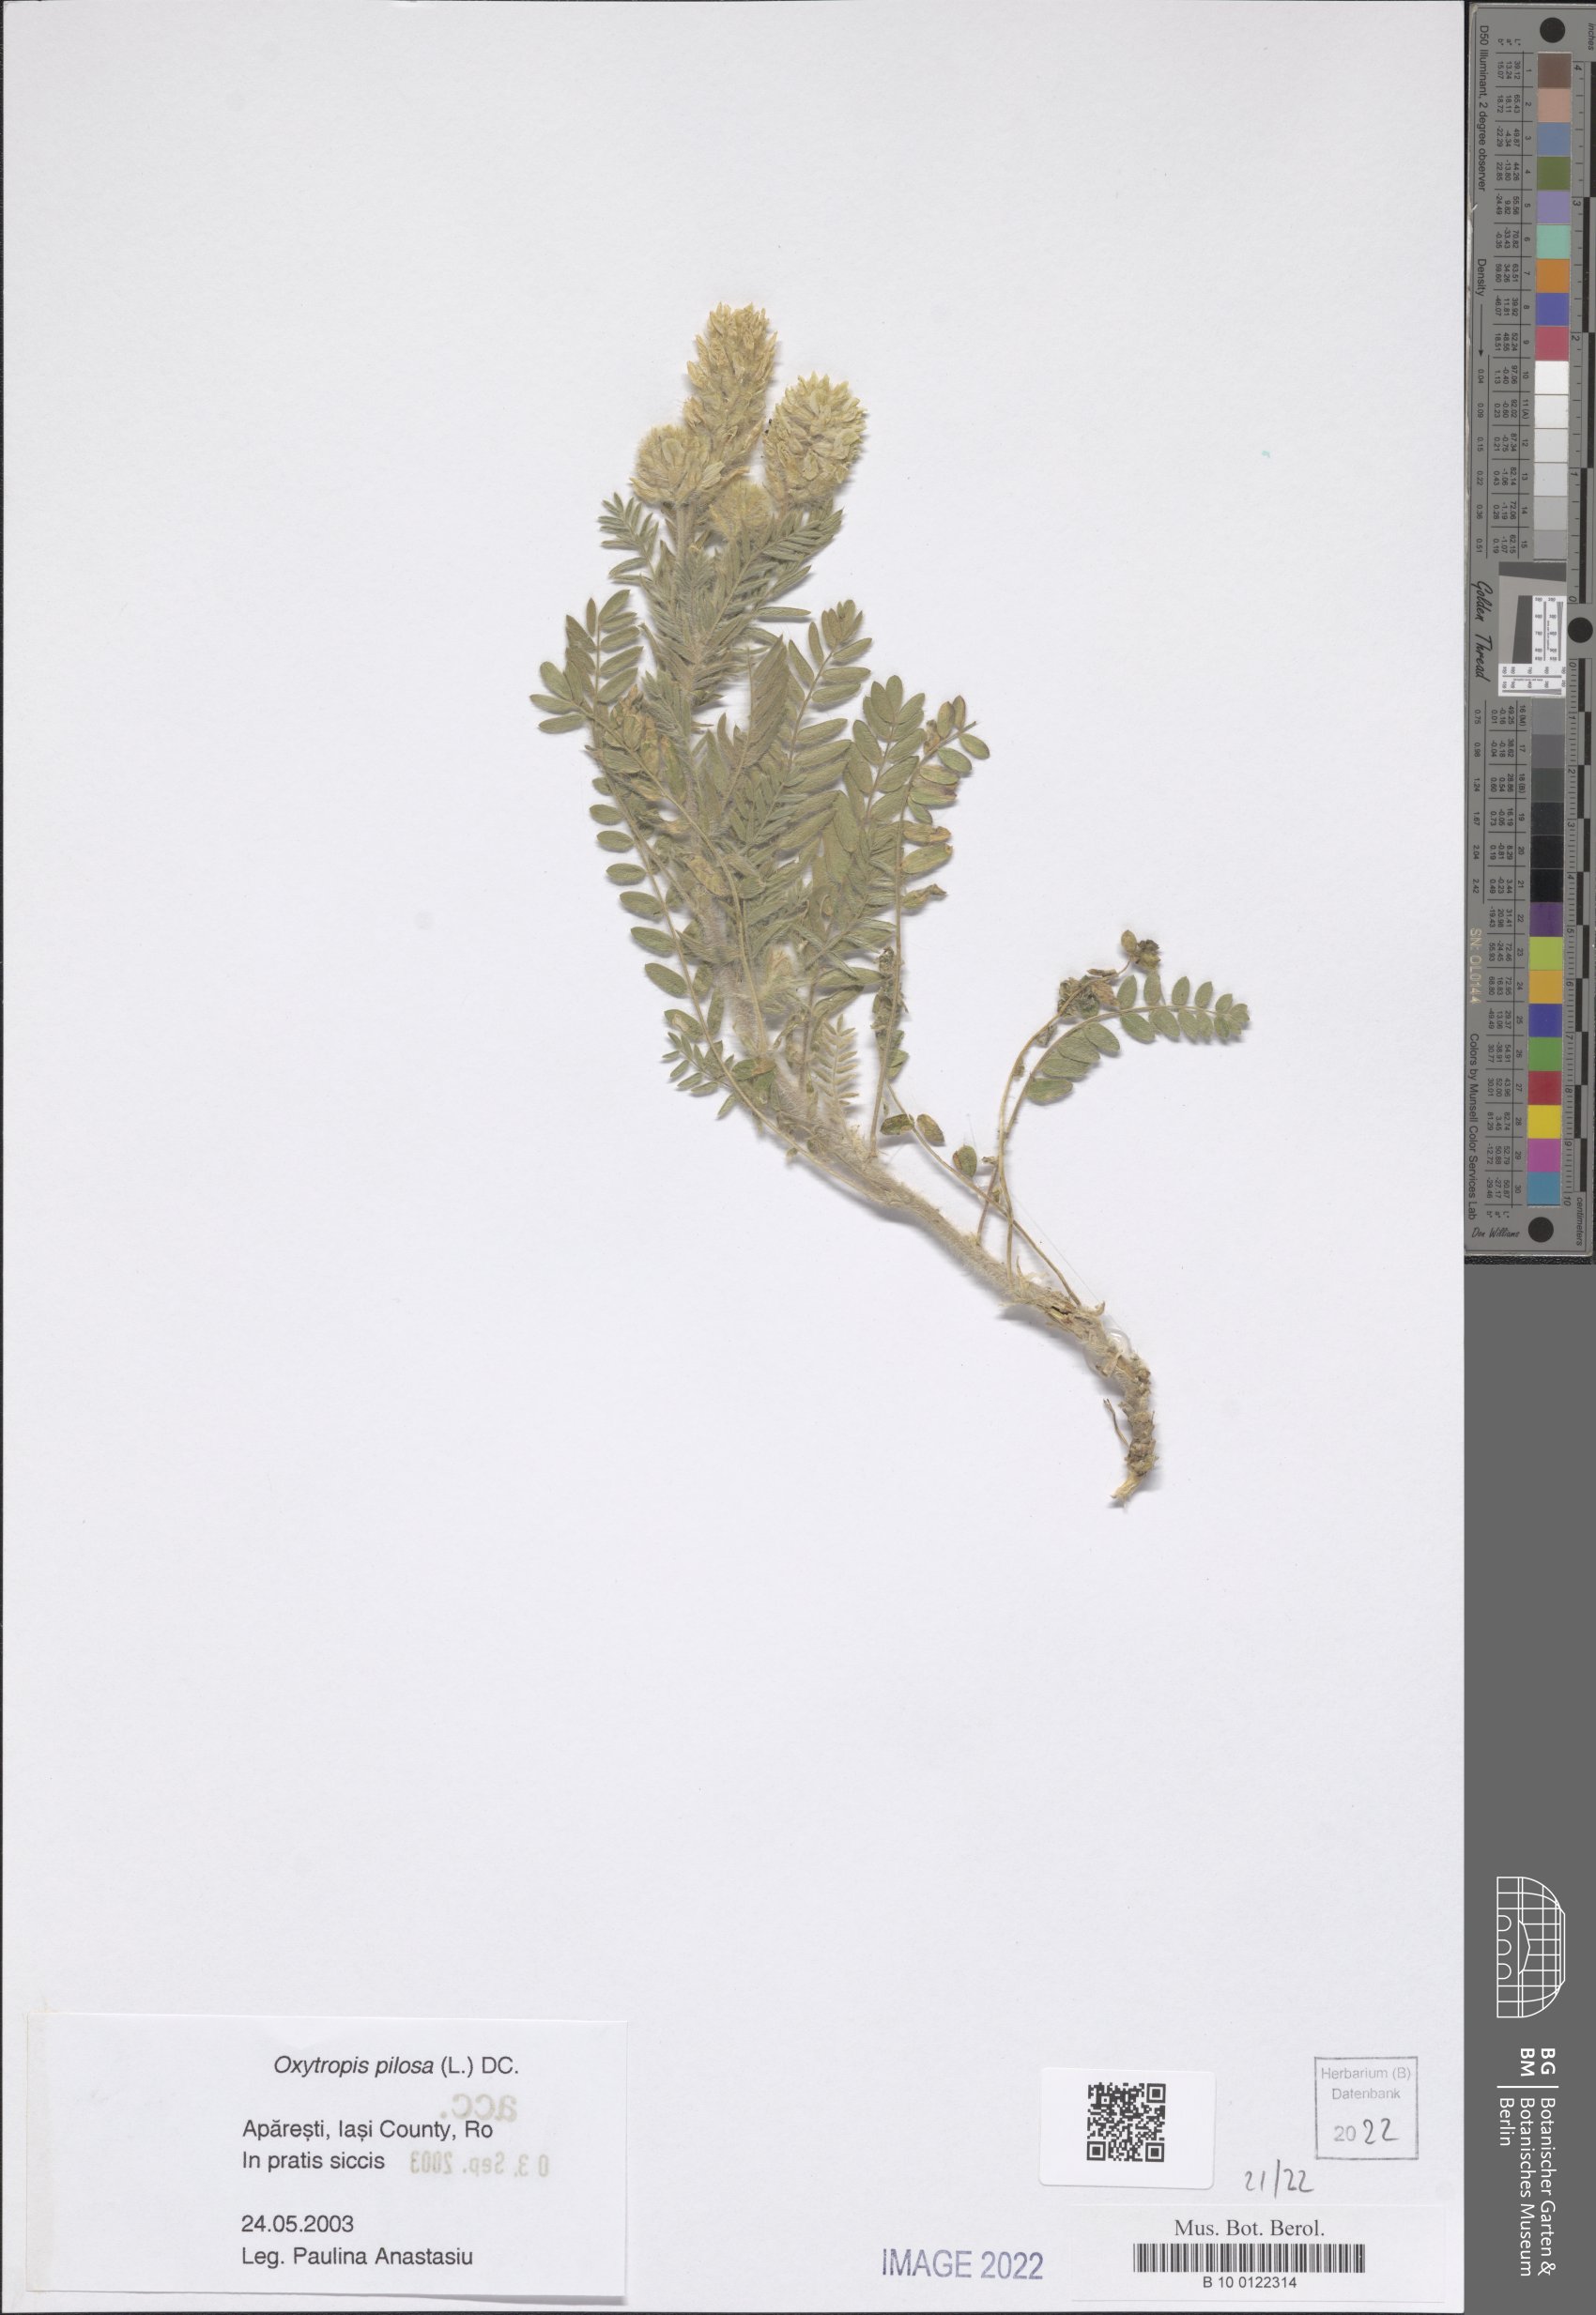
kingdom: Plantae
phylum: Tracheophyta
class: Magnoliopsida
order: Fabales
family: Fabaceae
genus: Oxytropis
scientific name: Oxytropis pilosa
